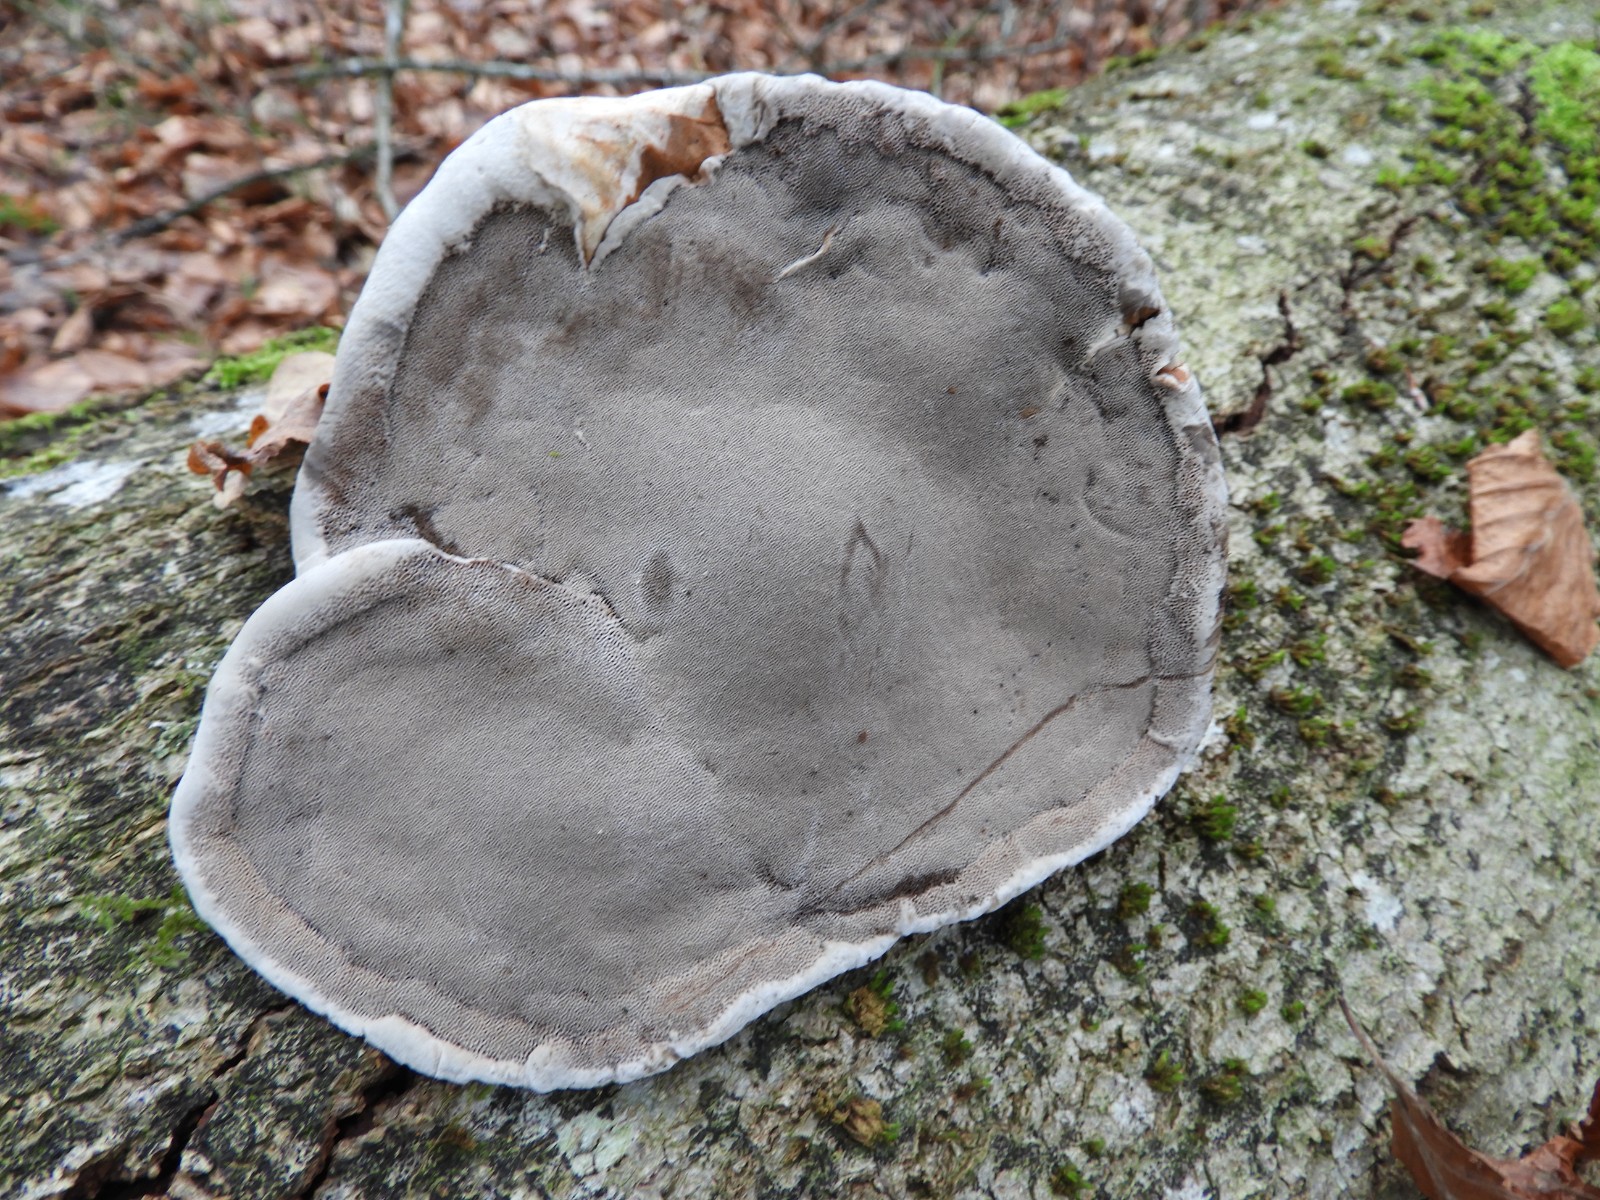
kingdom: Fungi
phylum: Basidiomycota
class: Agaricomycetes
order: Polyporales
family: Polyporaceae
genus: Fomes
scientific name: Fomes fomentarius
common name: tøndersvamp
